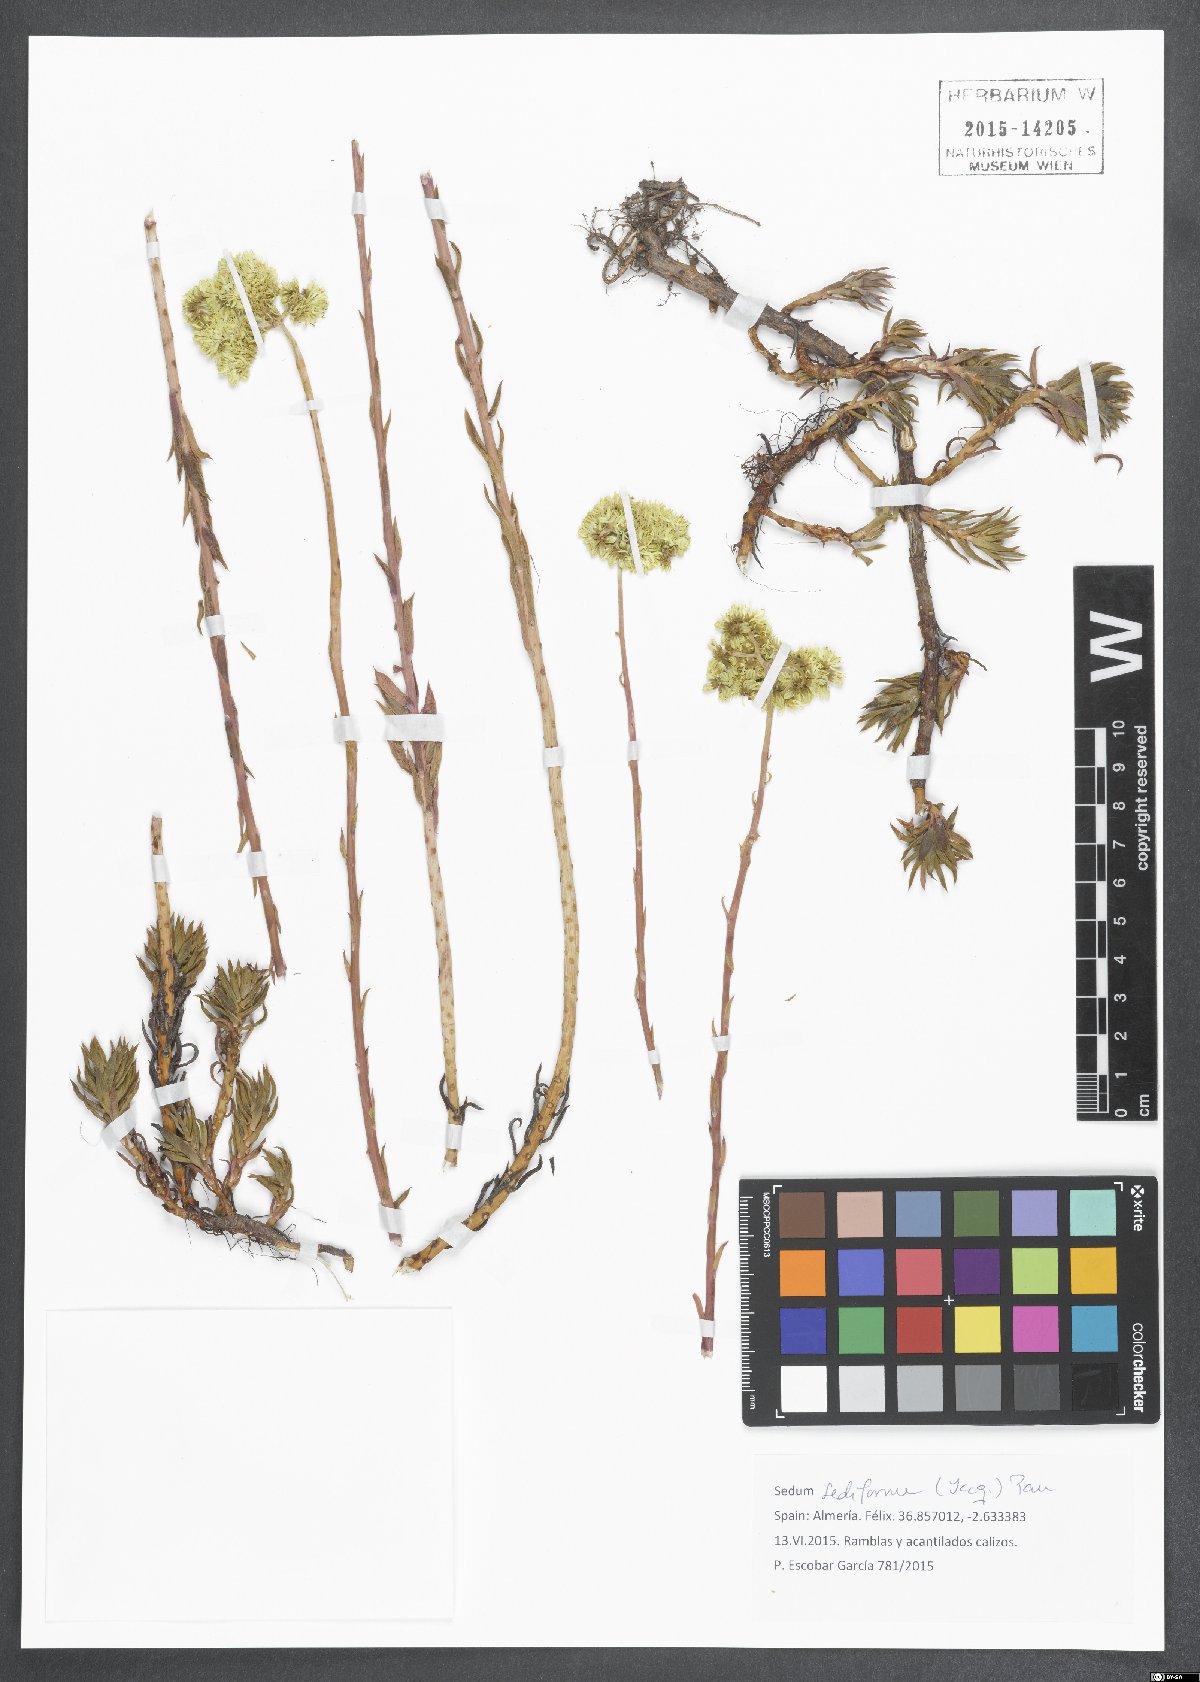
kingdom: Plantae
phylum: Tracheophyta
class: Magnoliopsida
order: Saxifragales
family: Crassulaceae
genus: Petrosedum
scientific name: Petrosedum sediforme
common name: Pale stonecrop
